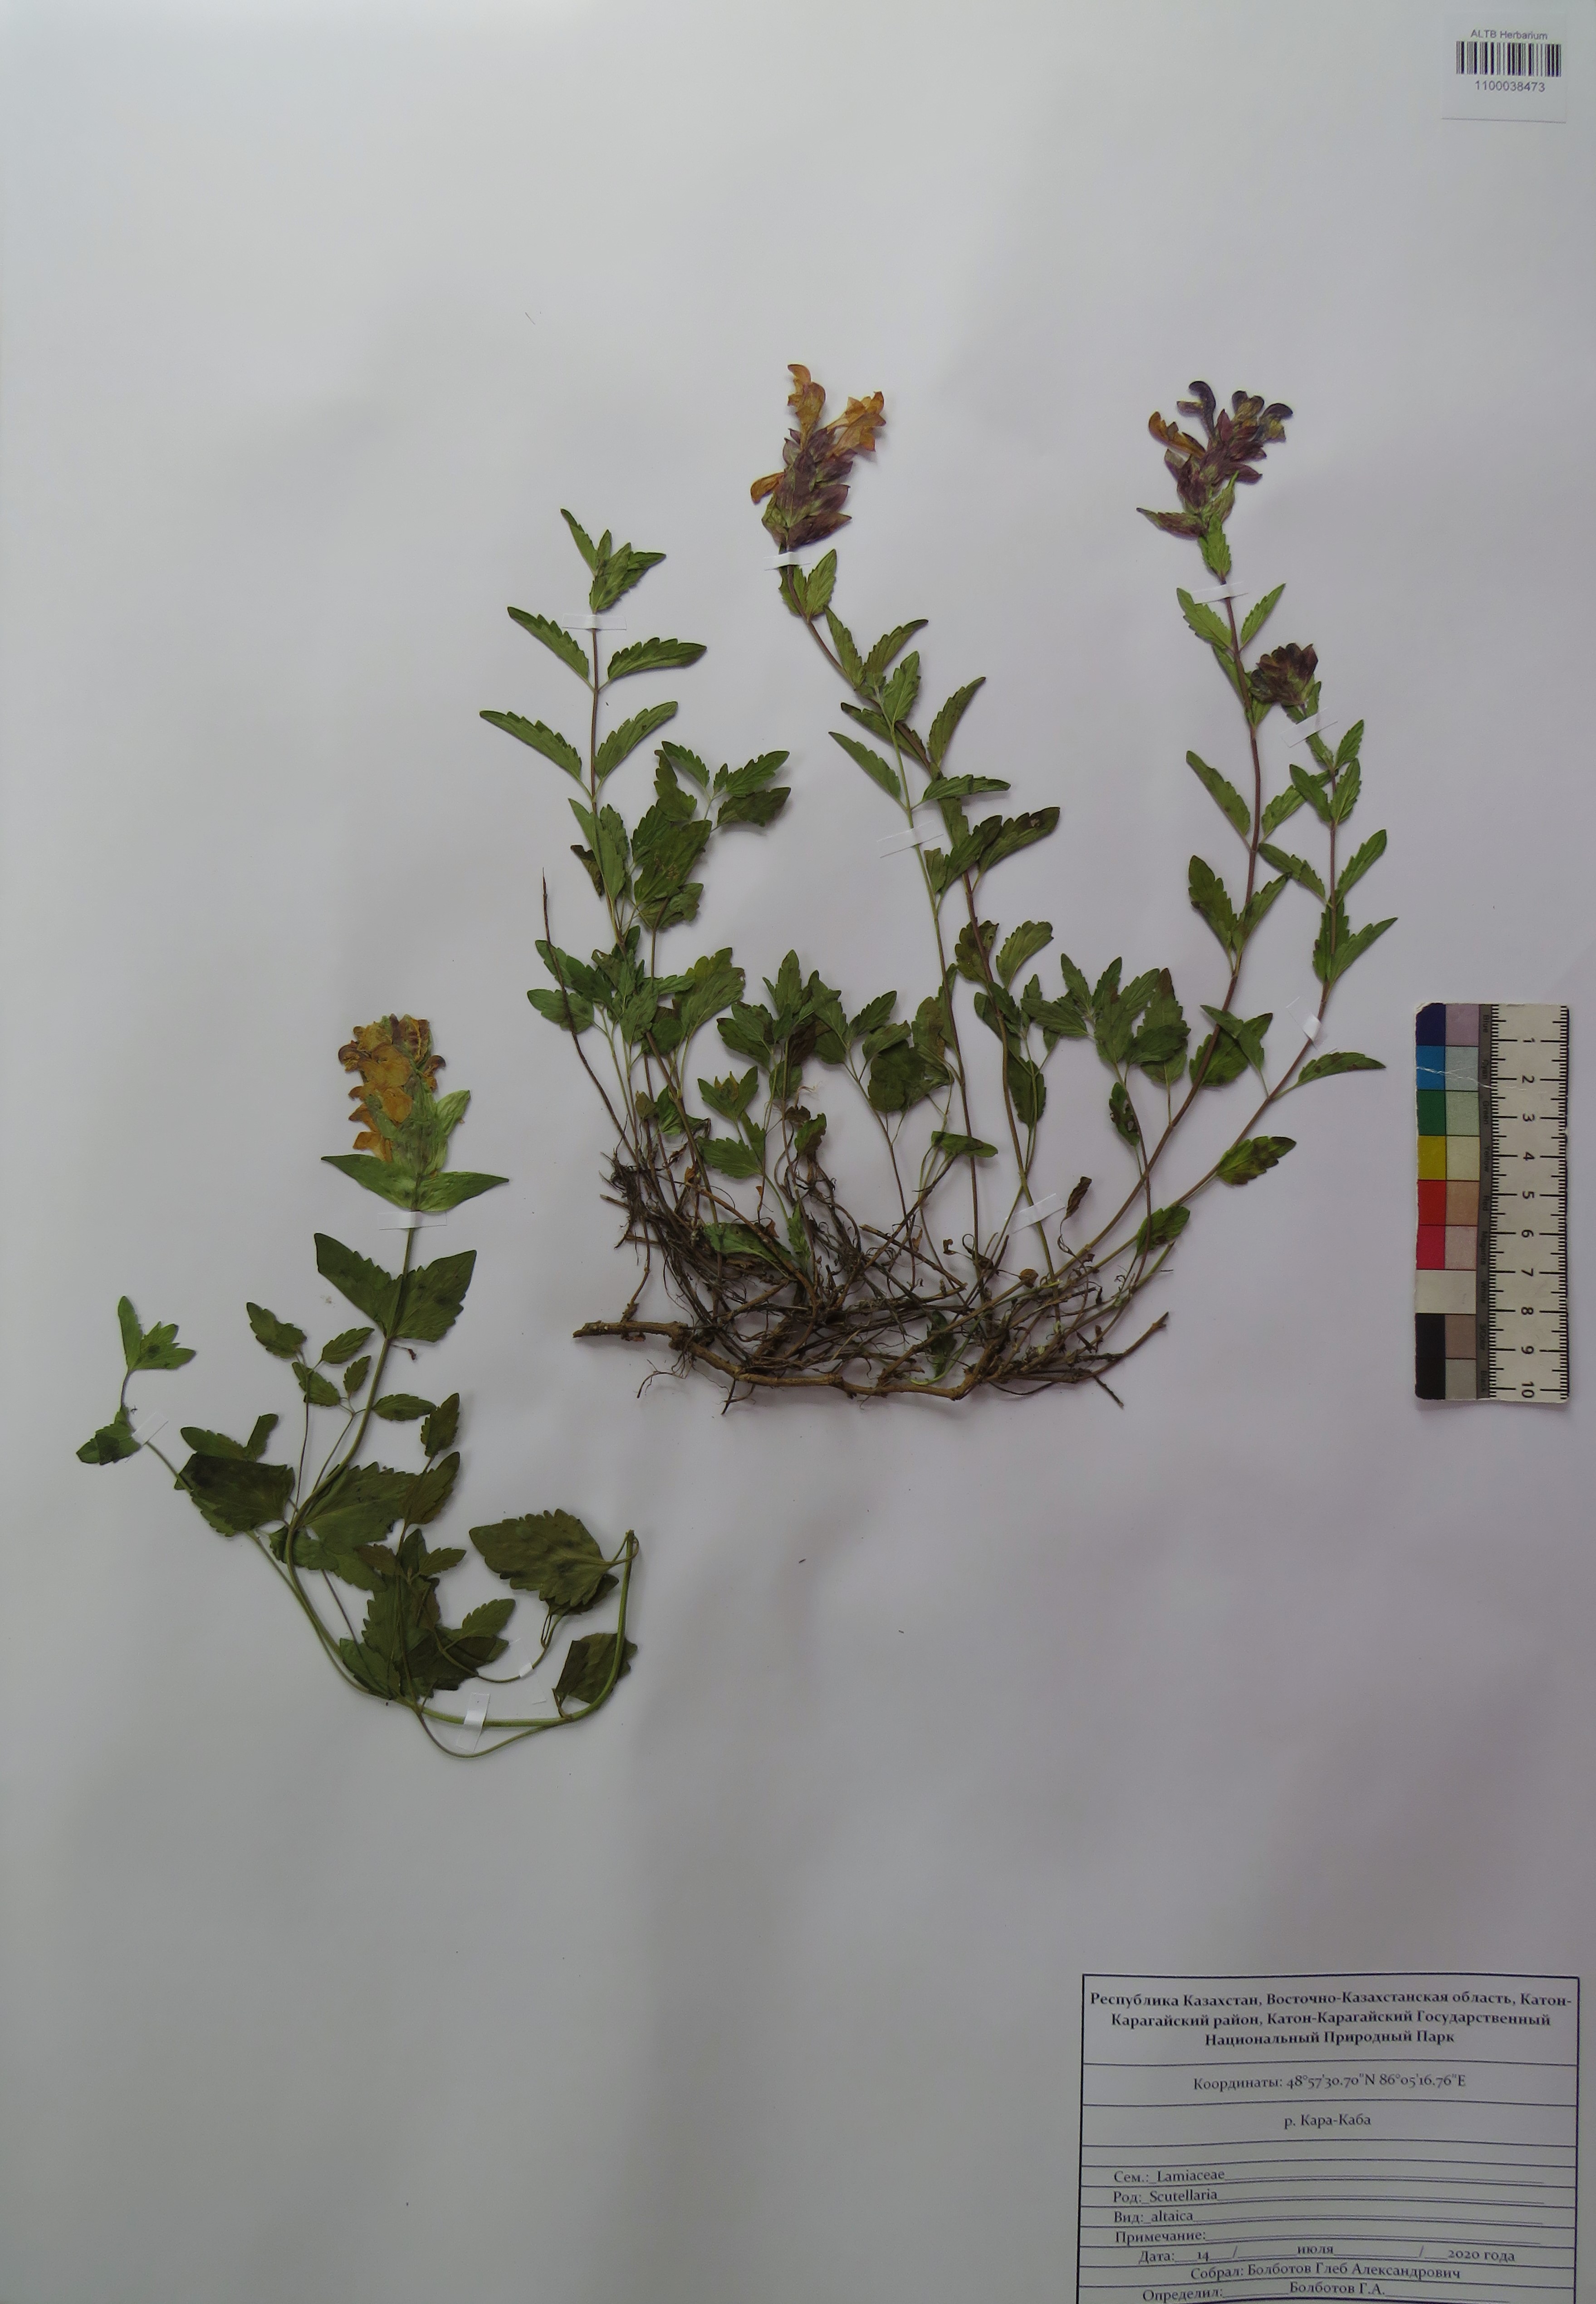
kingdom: Plantae
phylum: Tracheophyta
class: Magnoliopsida
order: Lamiales
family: Lamiaceae
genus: Scutellaria
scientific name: Scutellaria altaica
